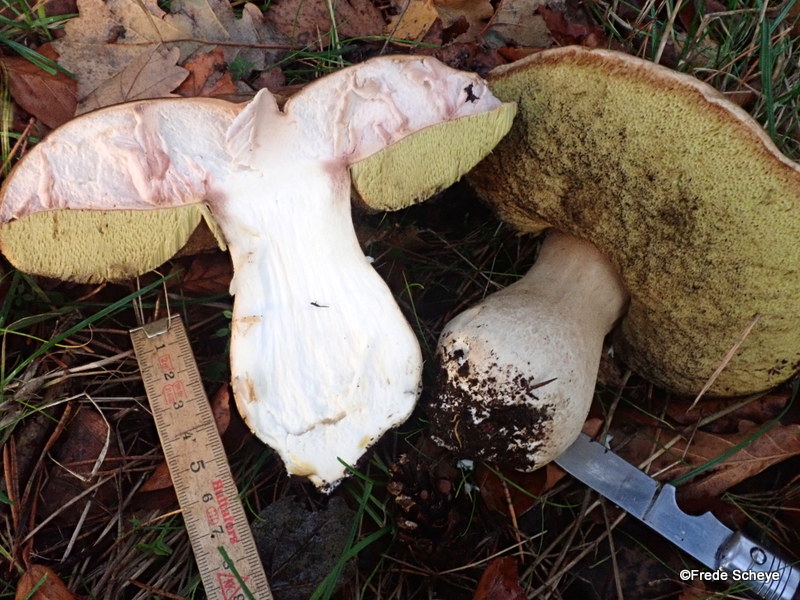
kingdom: Fungi
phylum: Basidiomycota
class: Agaricomycetes
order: Boletales
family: Boletaceae
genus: Boletus
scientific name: Boletus edulis
